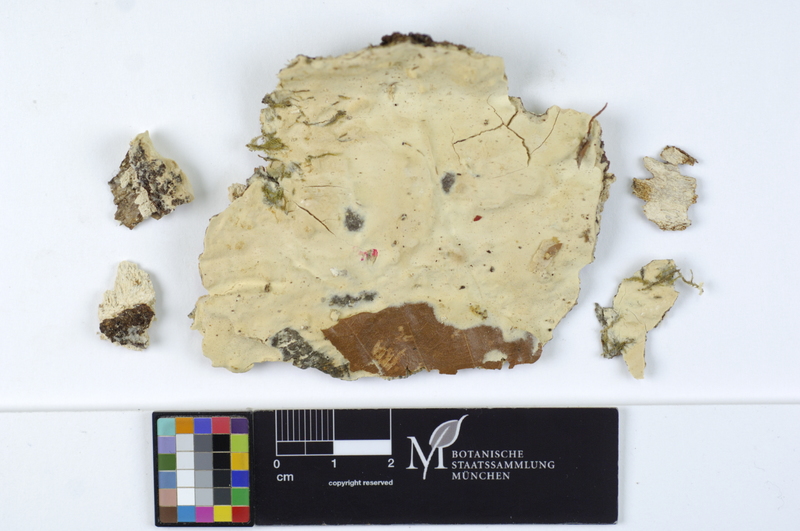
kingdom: Fungi
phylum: Basidiomycota
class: Agaricomycetes
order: Corticiales
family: Corticiaceae
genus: Erythricium
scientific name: Erythricium laetum
